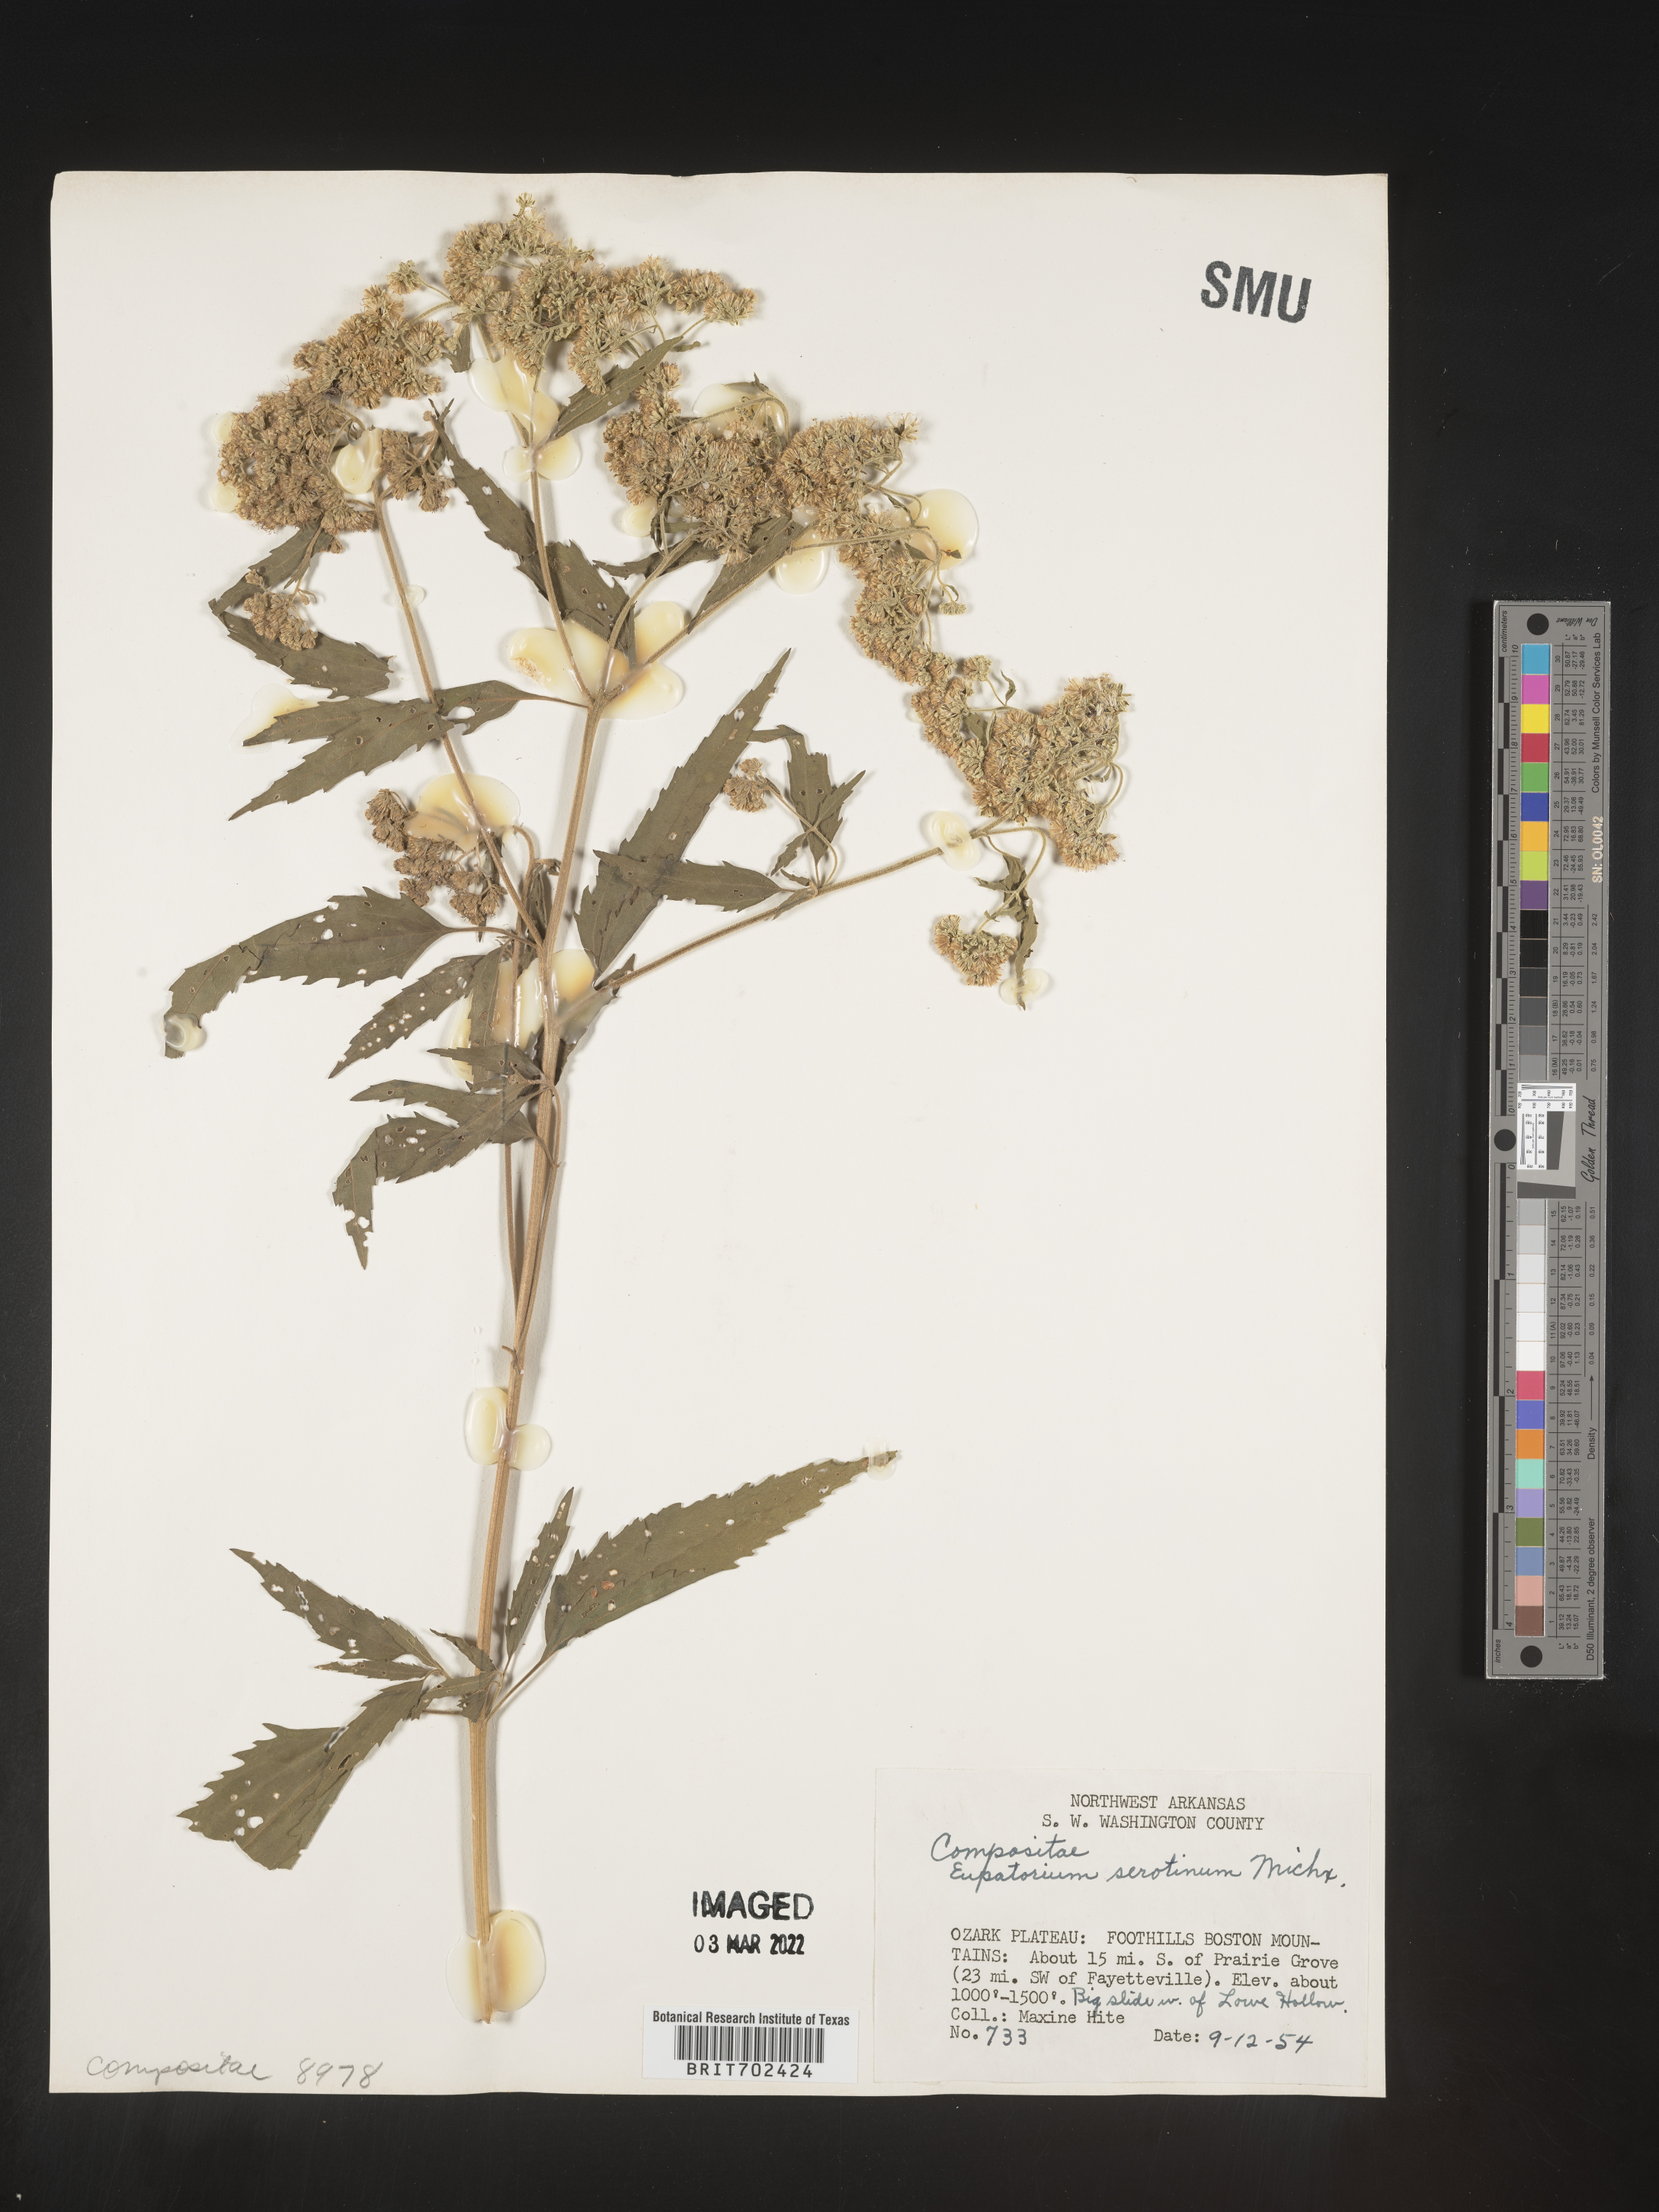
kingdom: Plantae
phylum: Tracheophyta
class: Magnoliopsida
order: Asterales
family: Asteraceae
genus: Eupatorium
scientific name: Eupatorium serotinum
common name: Late boneset
